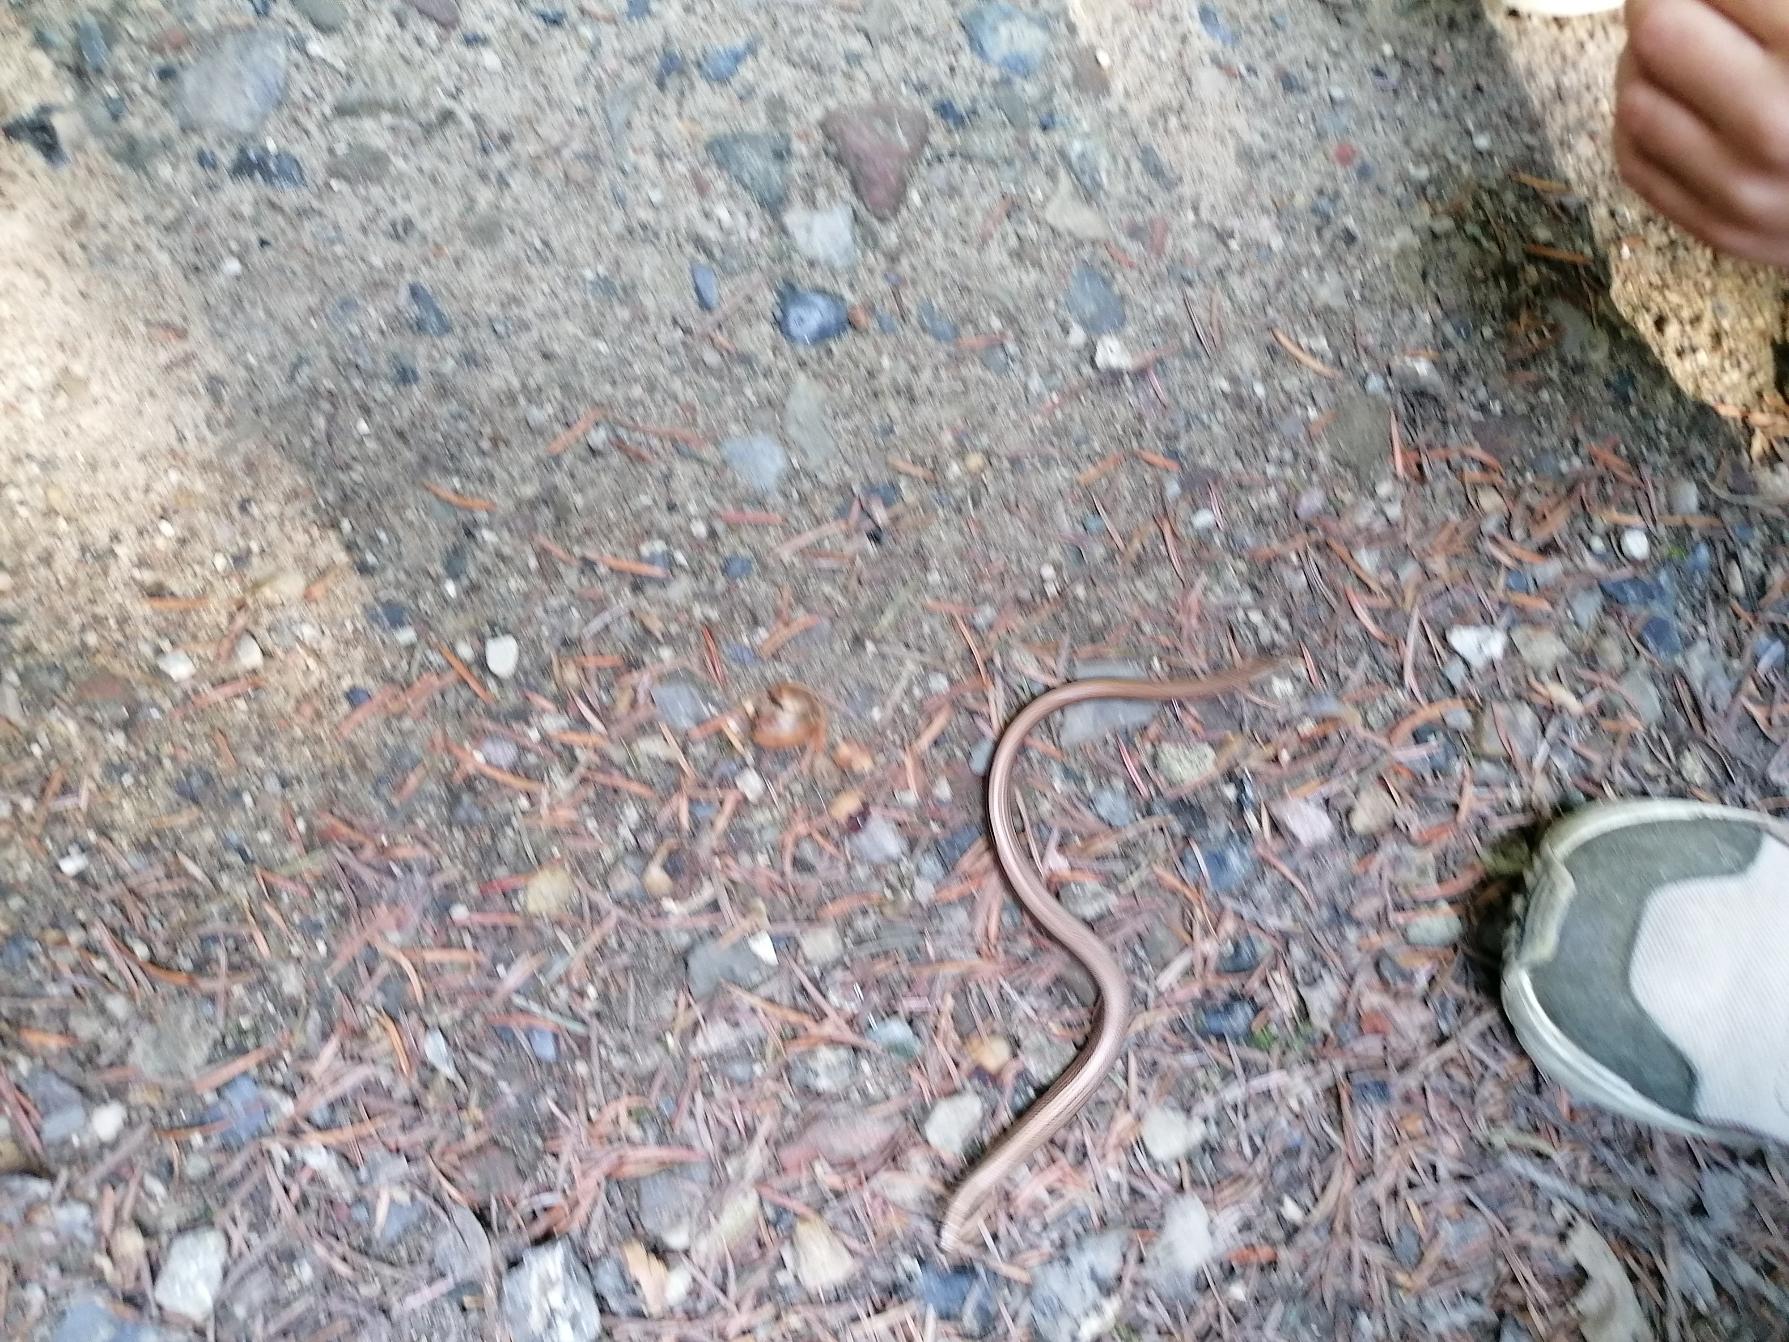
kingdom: Animalia
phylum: Chordata
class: Squamata
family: Anguidae
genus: Anguis
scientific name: Anguis fragilis
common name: Stålorm
